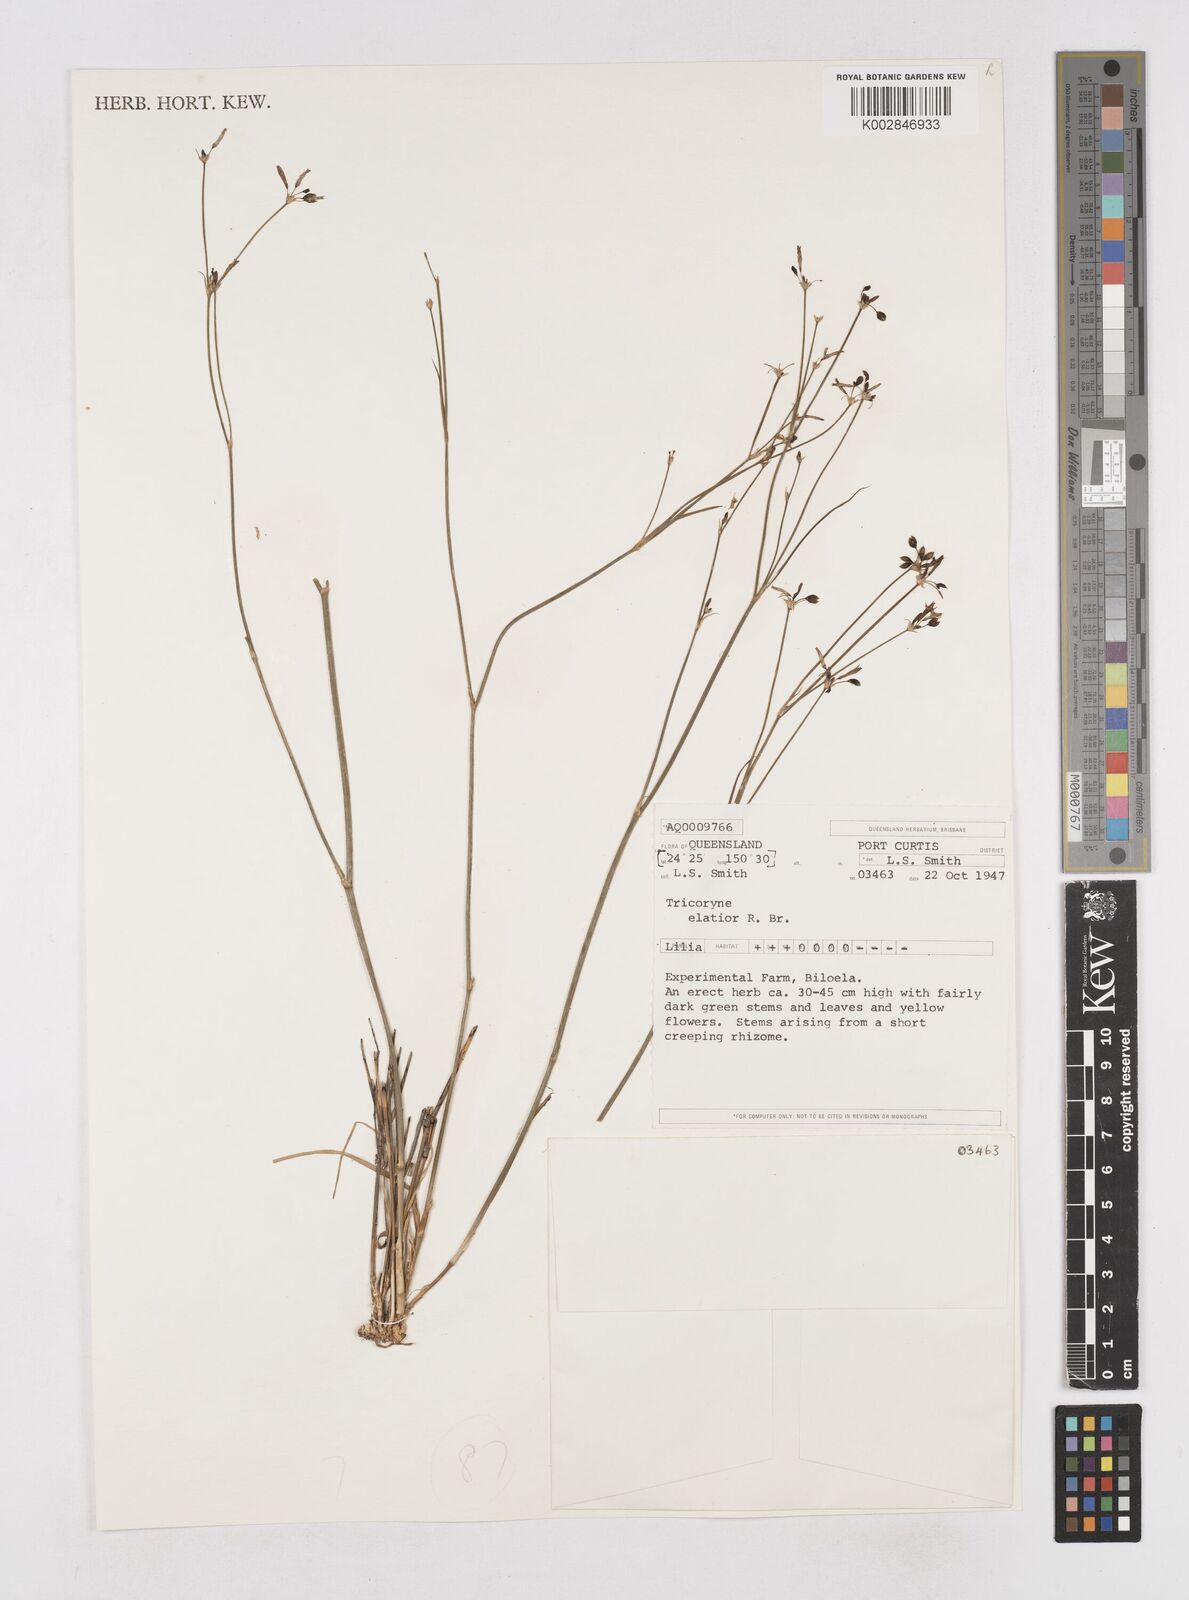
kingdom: Plantae
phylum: Tracheophyta
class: Liliopsida
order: Asparagales
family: Asphodelaceae
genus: Tricoryne
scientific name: Tricoryne elatior
